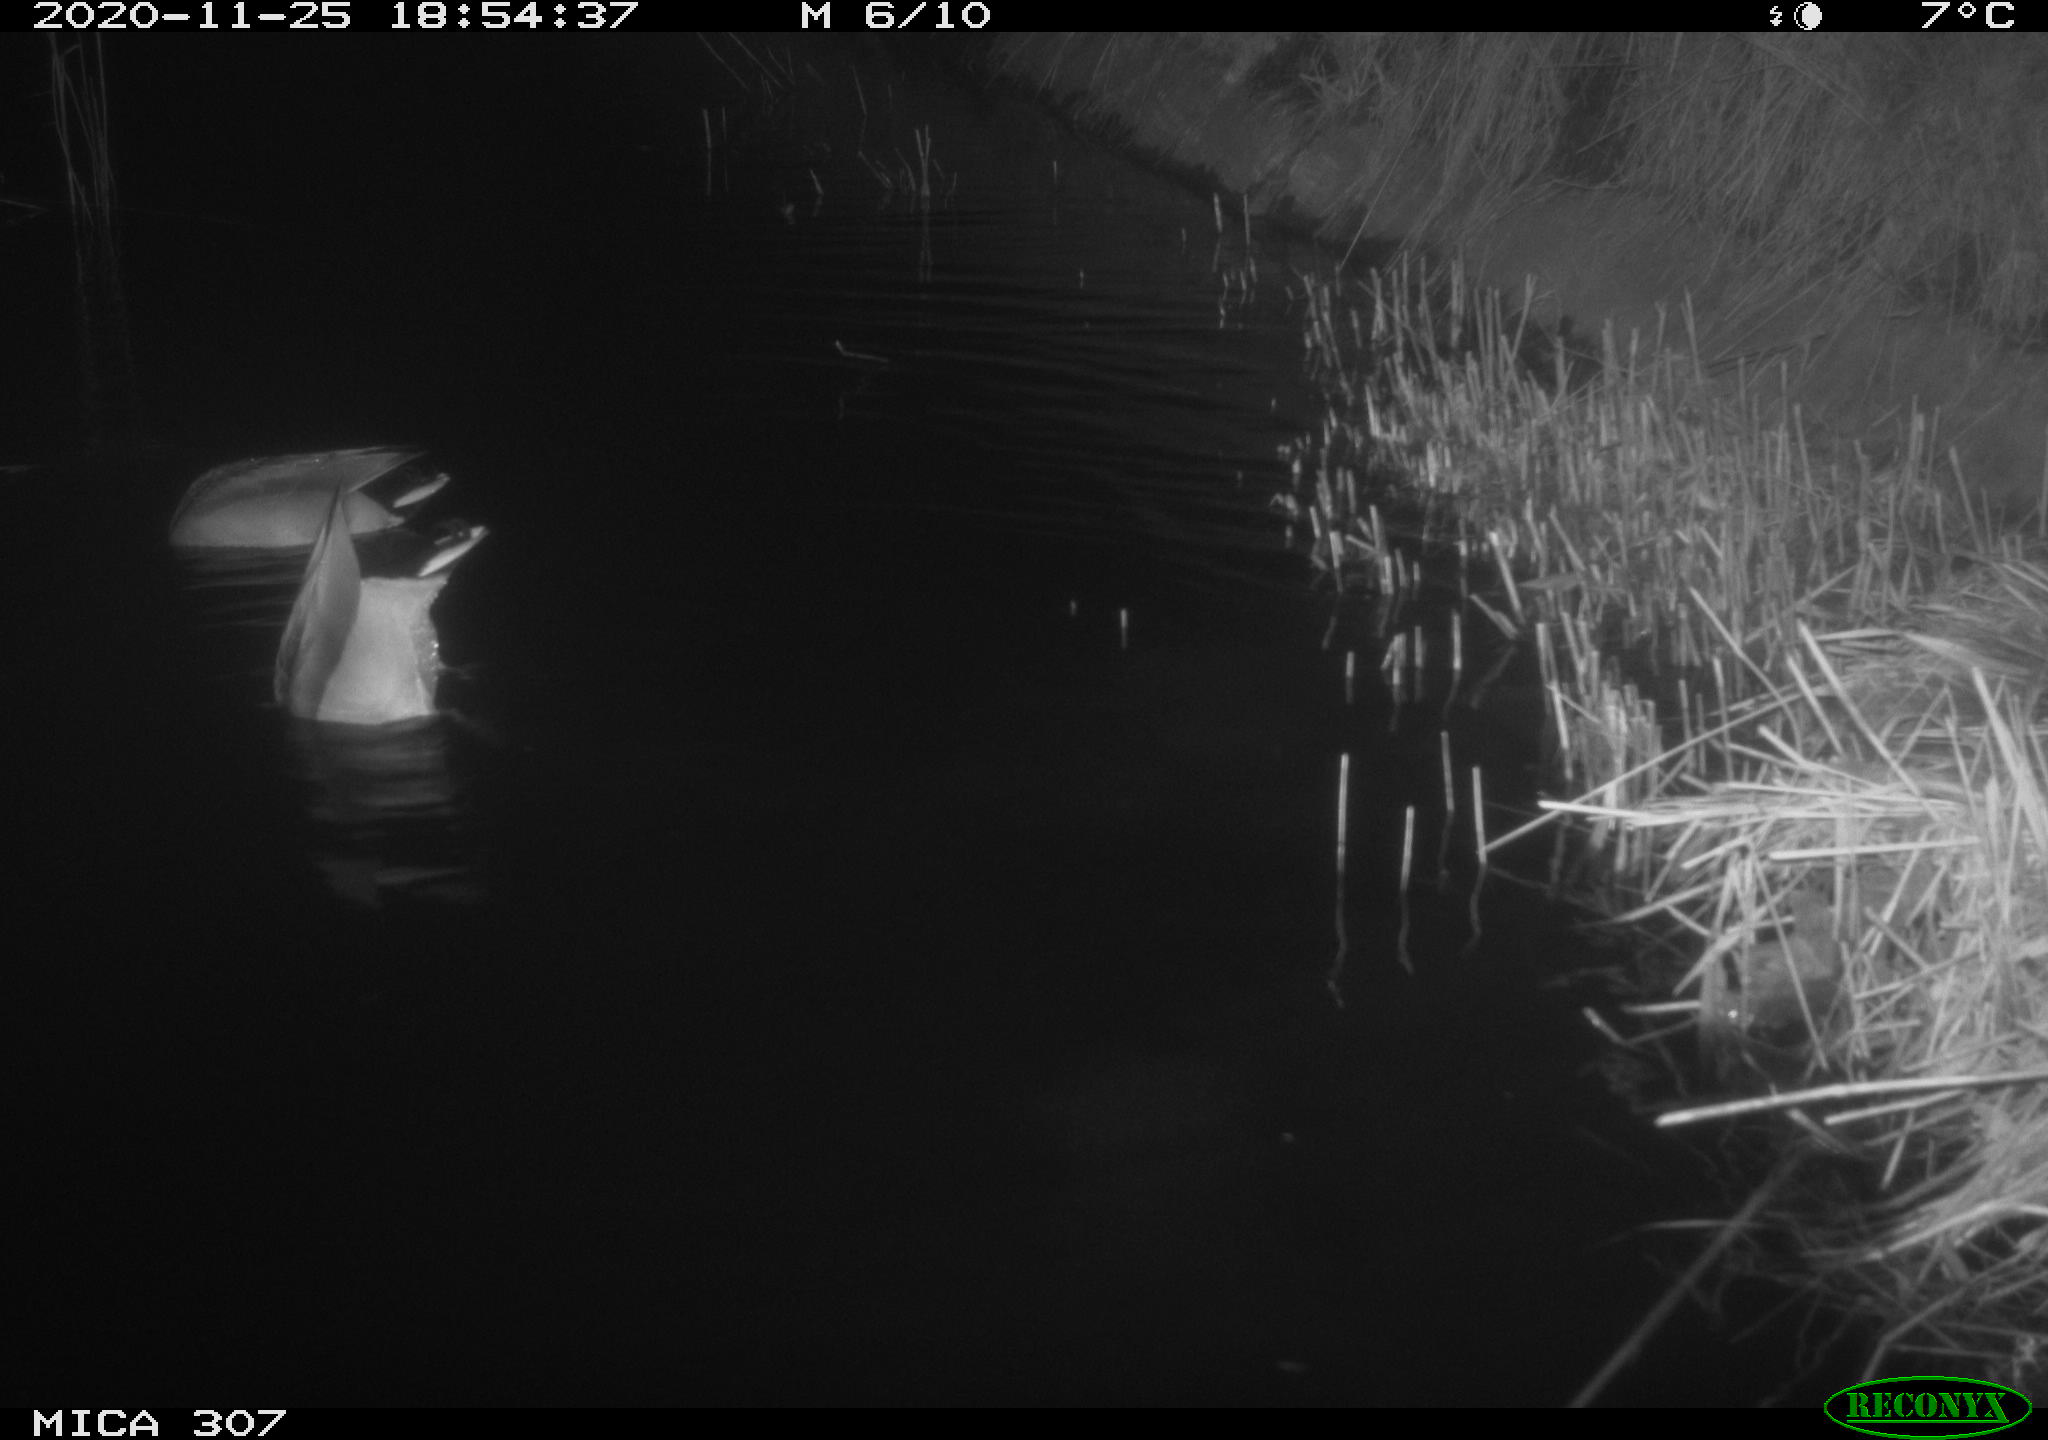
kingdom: Animalia
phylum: Chordata
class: Aves
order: Anseriformes
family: Anatidae
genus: Anas
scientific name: Anas platyrhynchos
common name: Mallard
